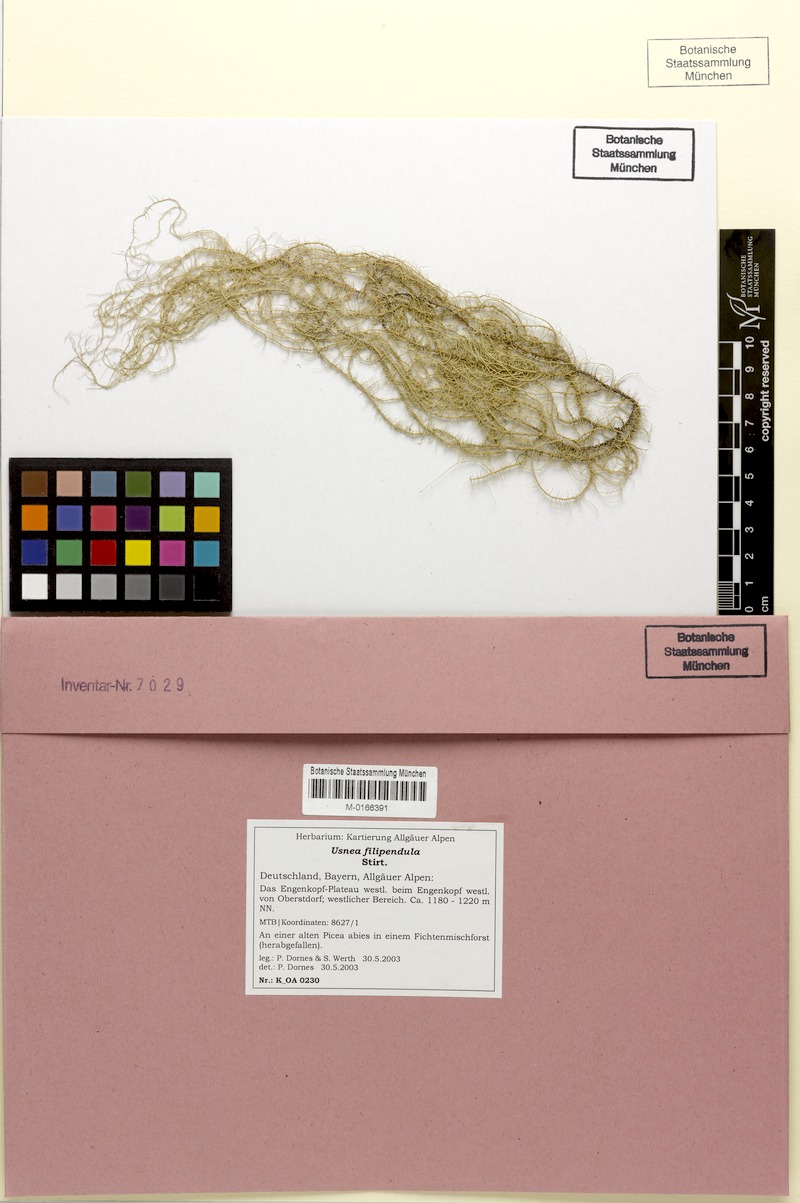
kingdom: Fungi
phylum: Ascomycota
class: Lecanoromycetes
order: Lecanorales
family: Parmeliaceae
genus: Usnea
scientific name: Usnea filipendula
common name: Fishbone beard lichen
